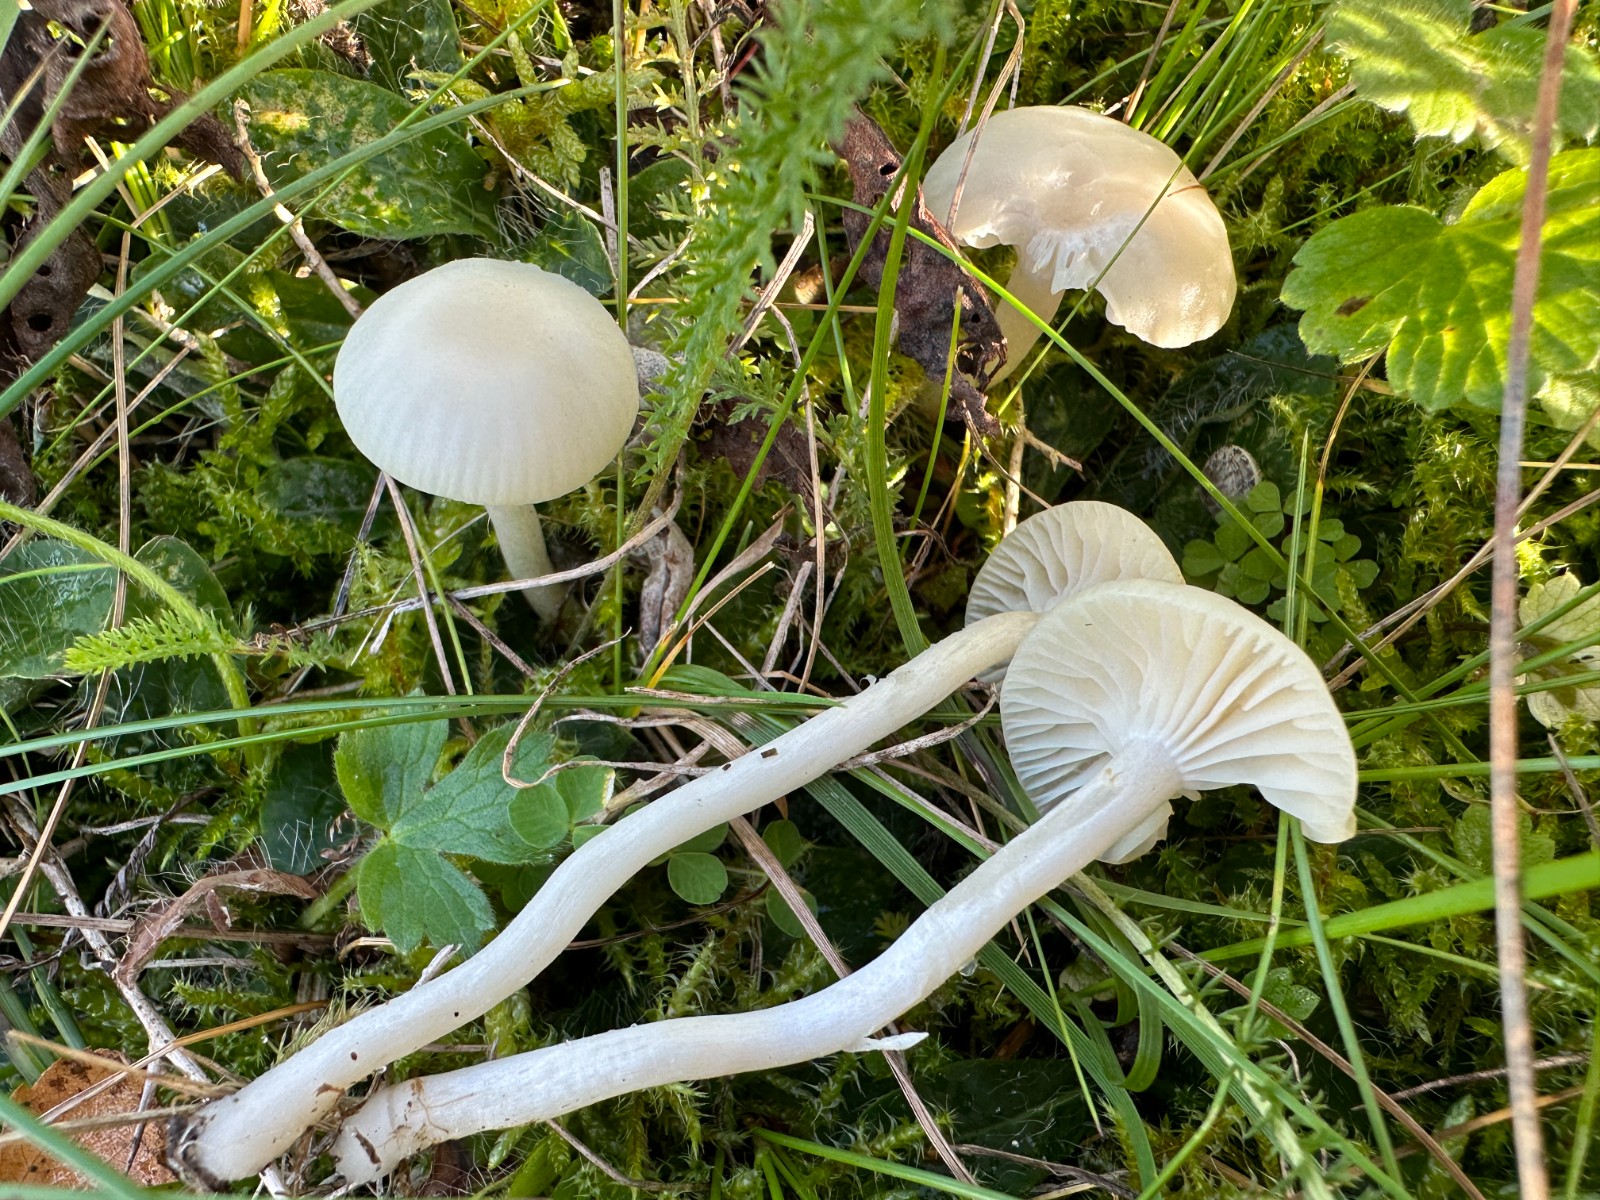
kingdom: Fungi
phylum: Basidiomycota
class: Agaricomycetes
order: Agaricales
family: Hygrophoraceae
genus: Cuphophyllus
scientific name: Cuphophyllus virgineus
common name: snehvid vokshat
